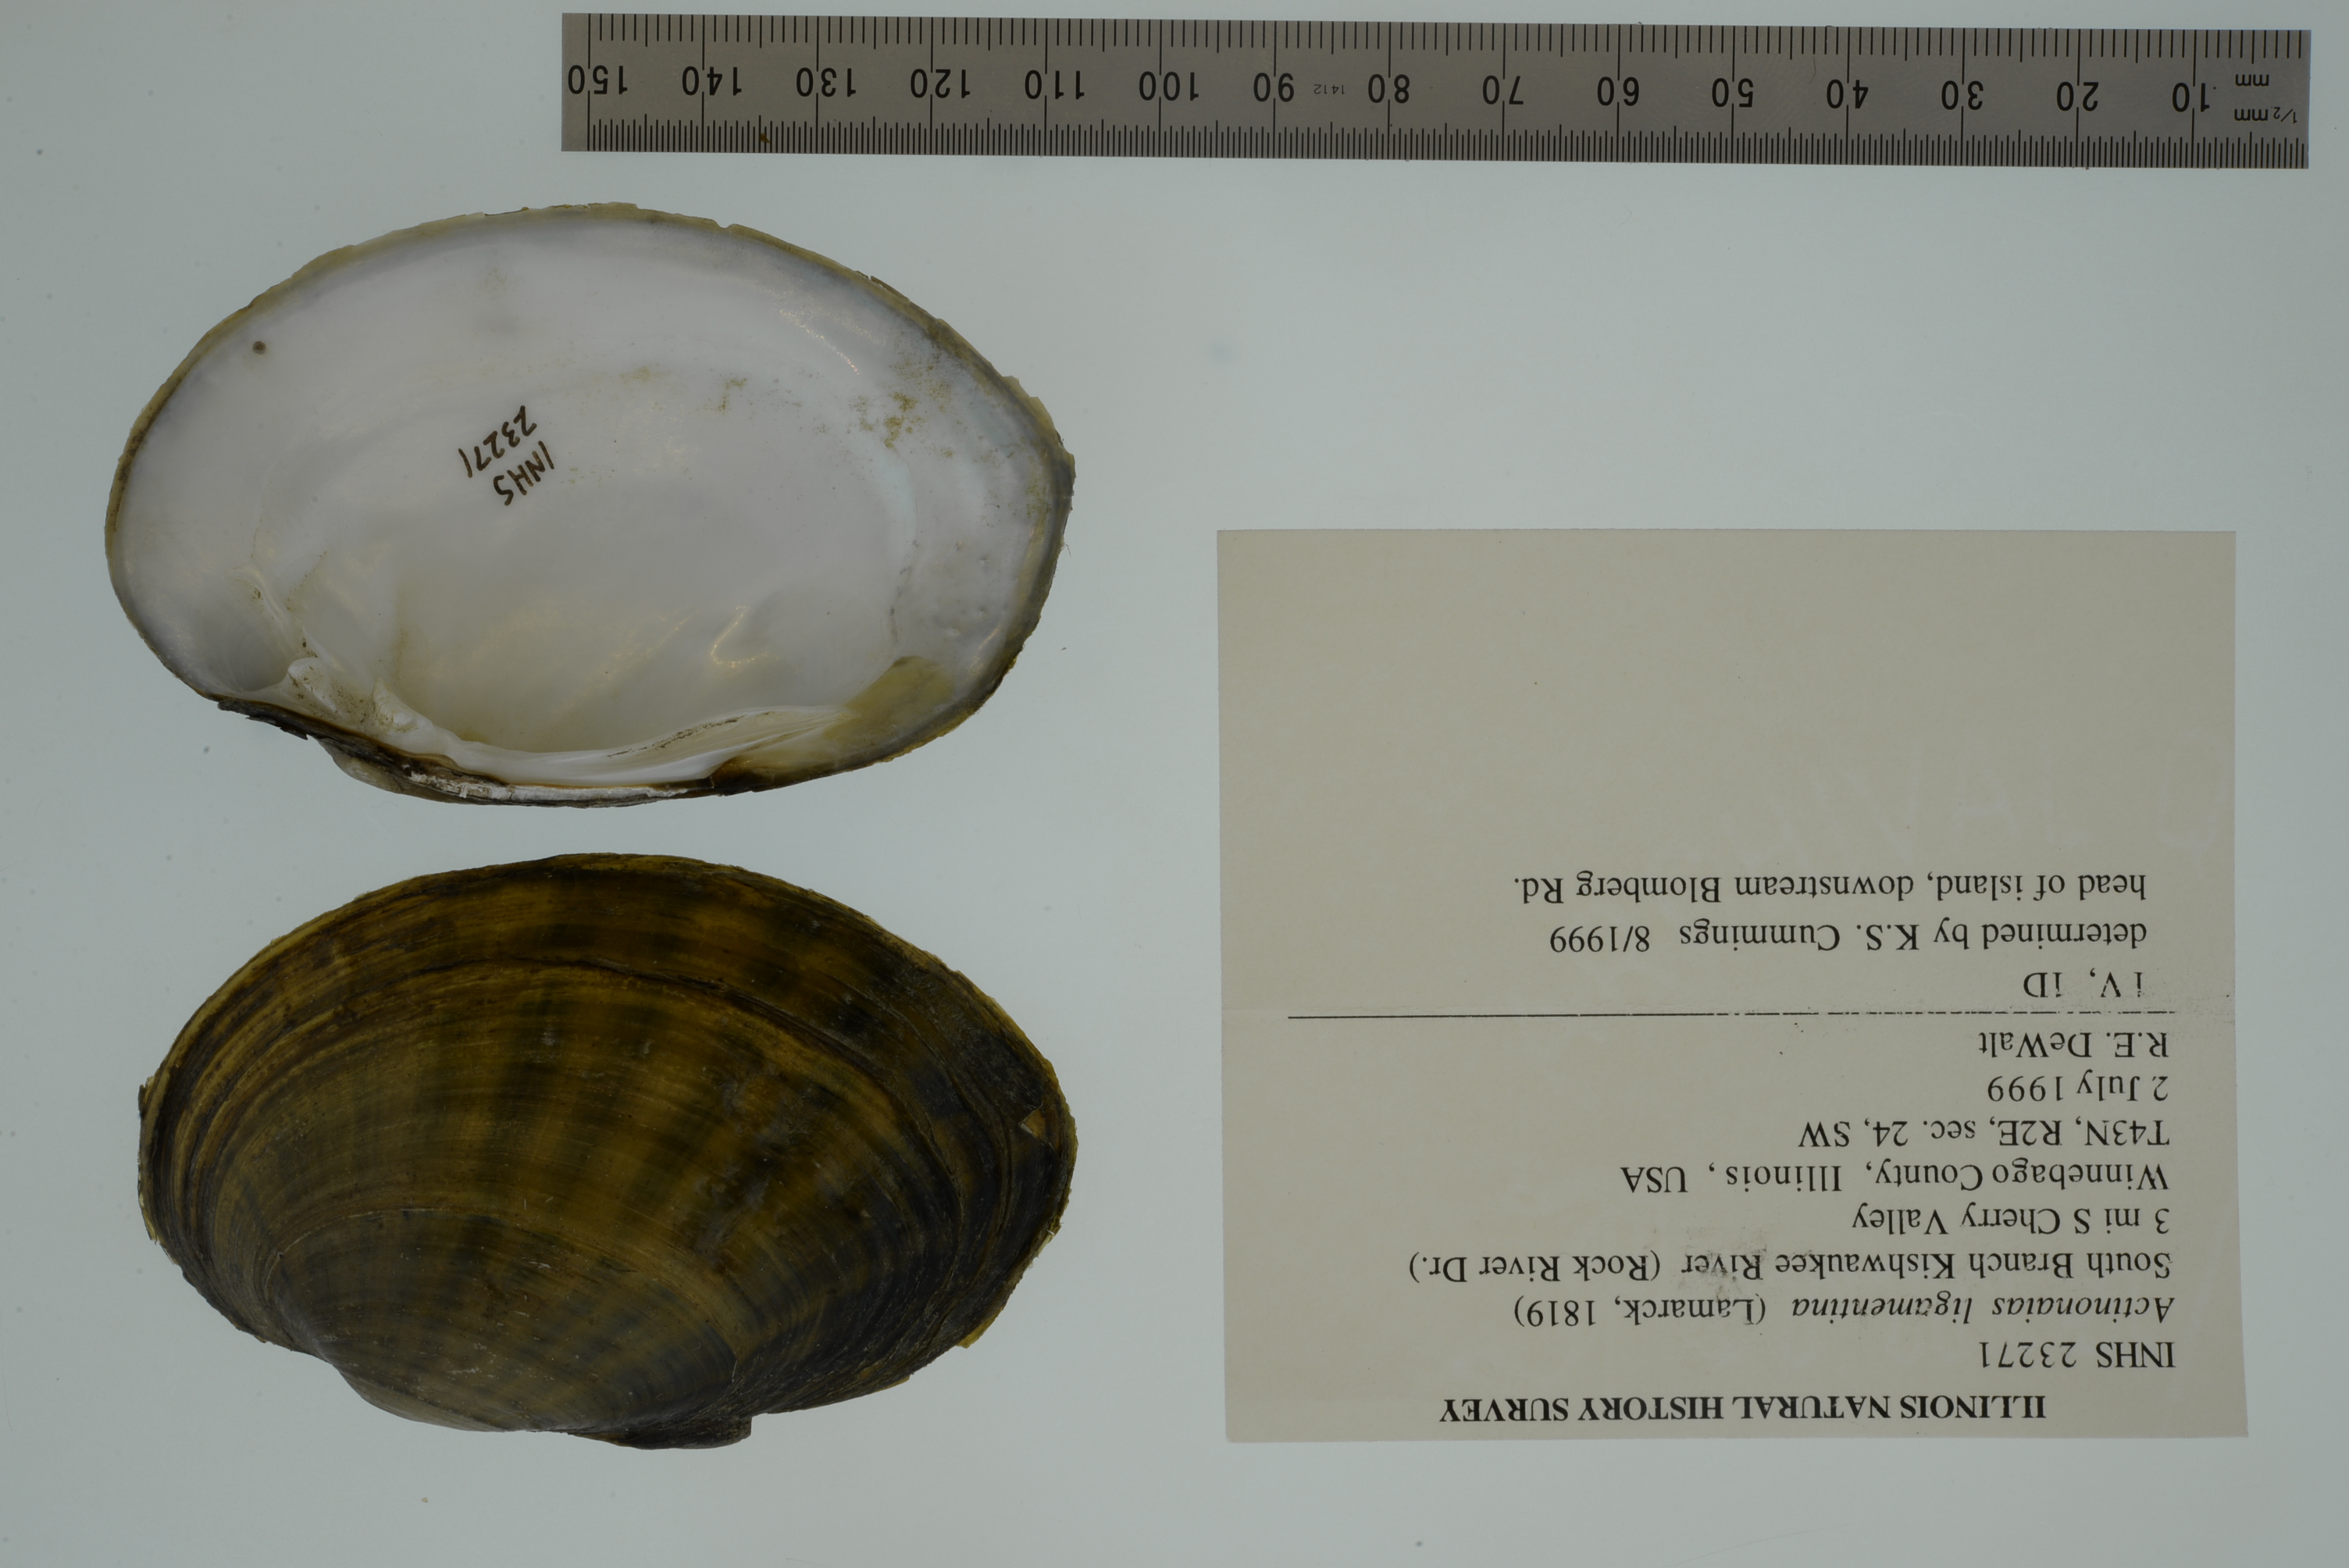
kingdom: Animalia
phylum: Mollusca
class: Bivalvia
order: Unionida
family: Unionidae
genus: Ortmanniana
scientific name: Ortmanniana ligamentina
